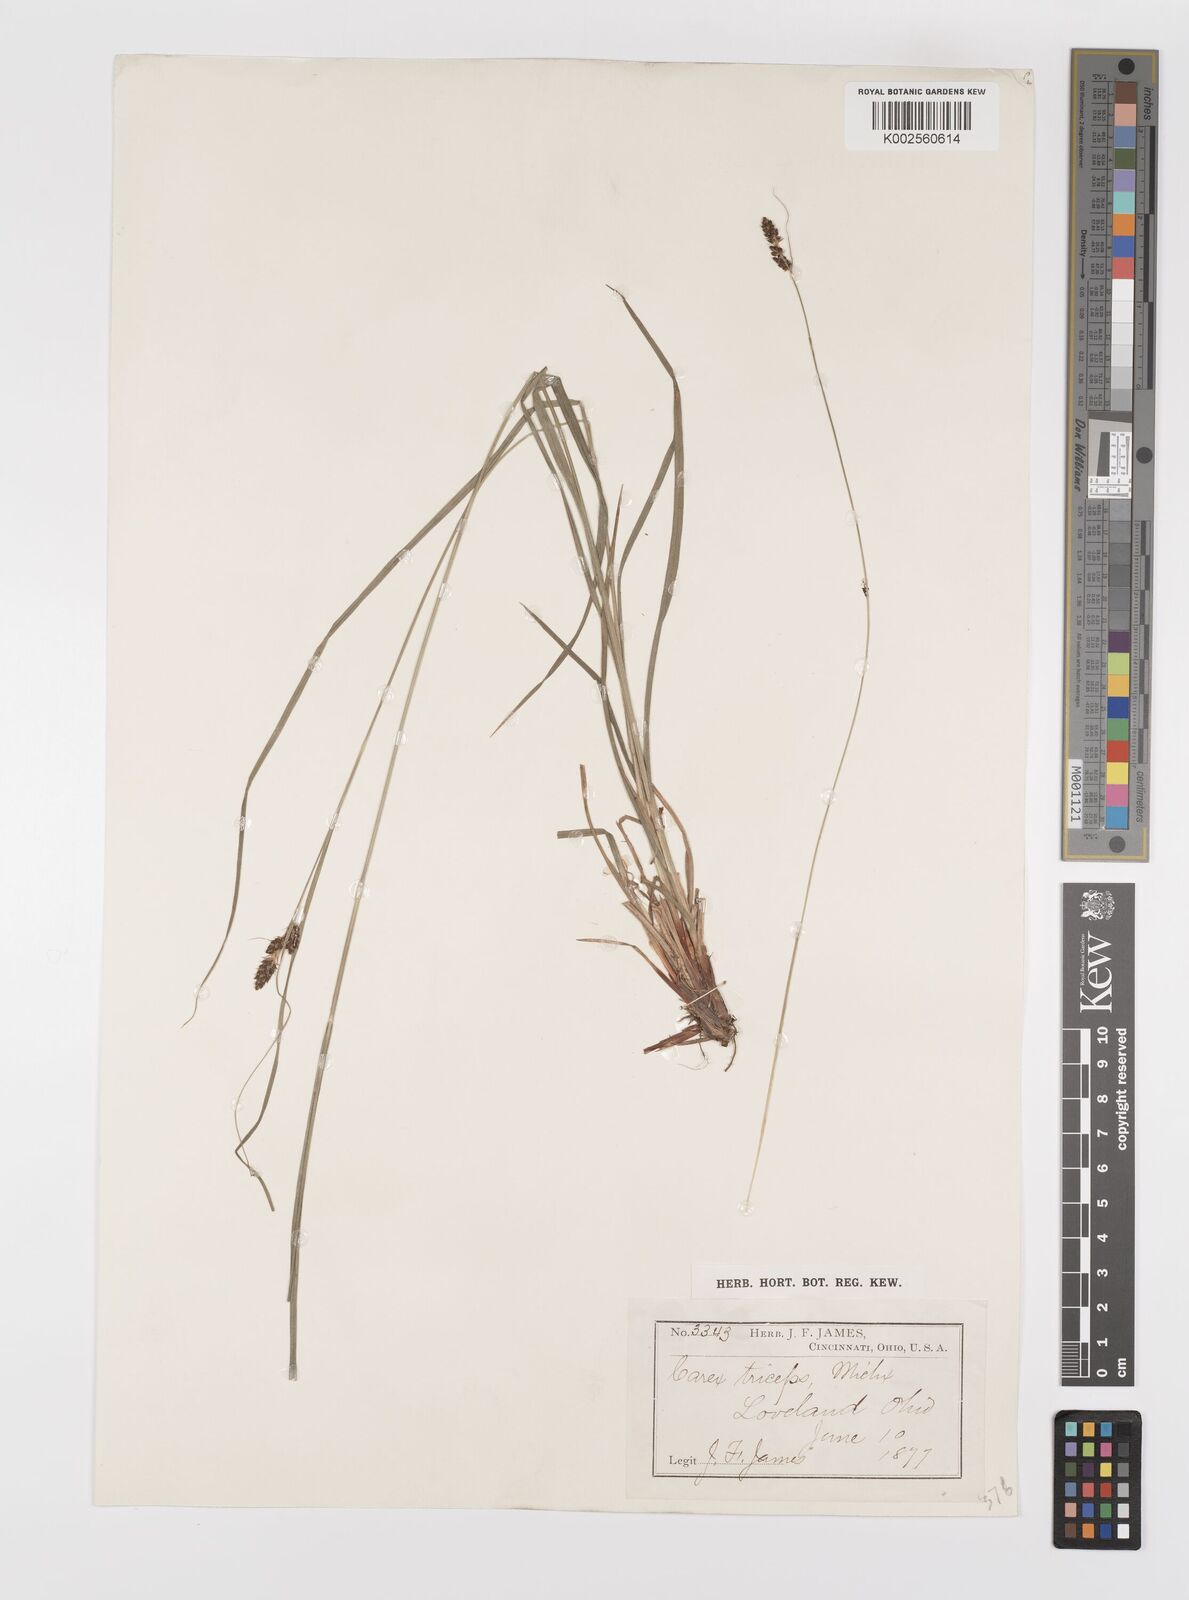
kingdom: Plantae
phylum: Tracheophyta
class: Liliopsida
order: Poales
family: Cyperaceae
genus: Carex
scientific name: Carex complanata
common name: Hirsute sedge
